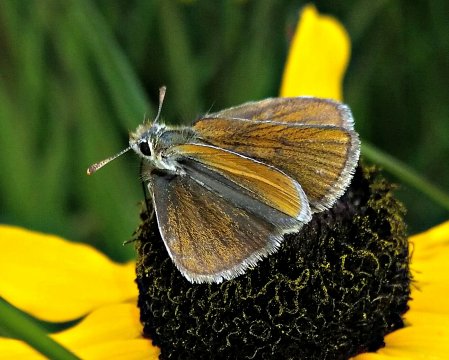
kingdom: Animalia
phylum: Arthropoda
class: Insecta
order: Lepidoptera
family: Hesperiidae
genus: Oarisma
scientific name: Oarisma garita
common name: Garita Skipperling
